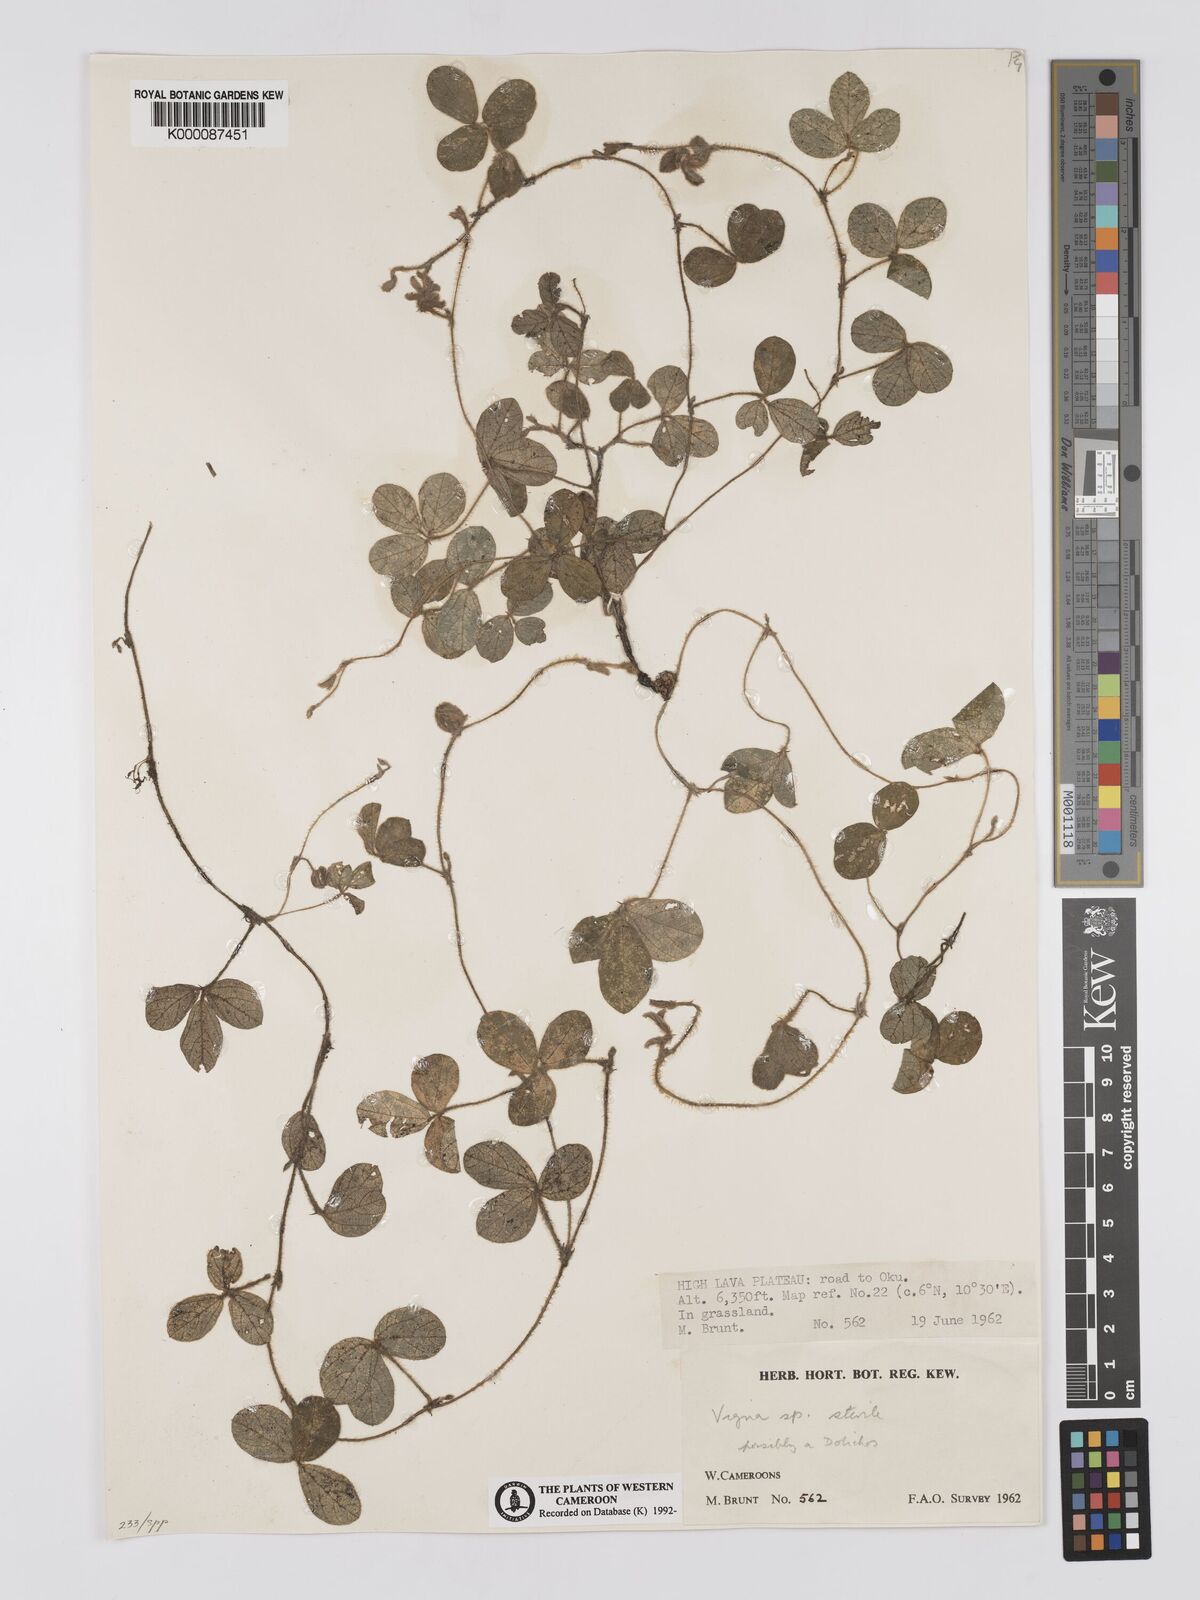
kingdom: Plantae
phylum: Tracheophyta
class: Magnoliopsida
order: Fabales
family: Fabaceae
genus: Vigna
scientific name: Vigna
